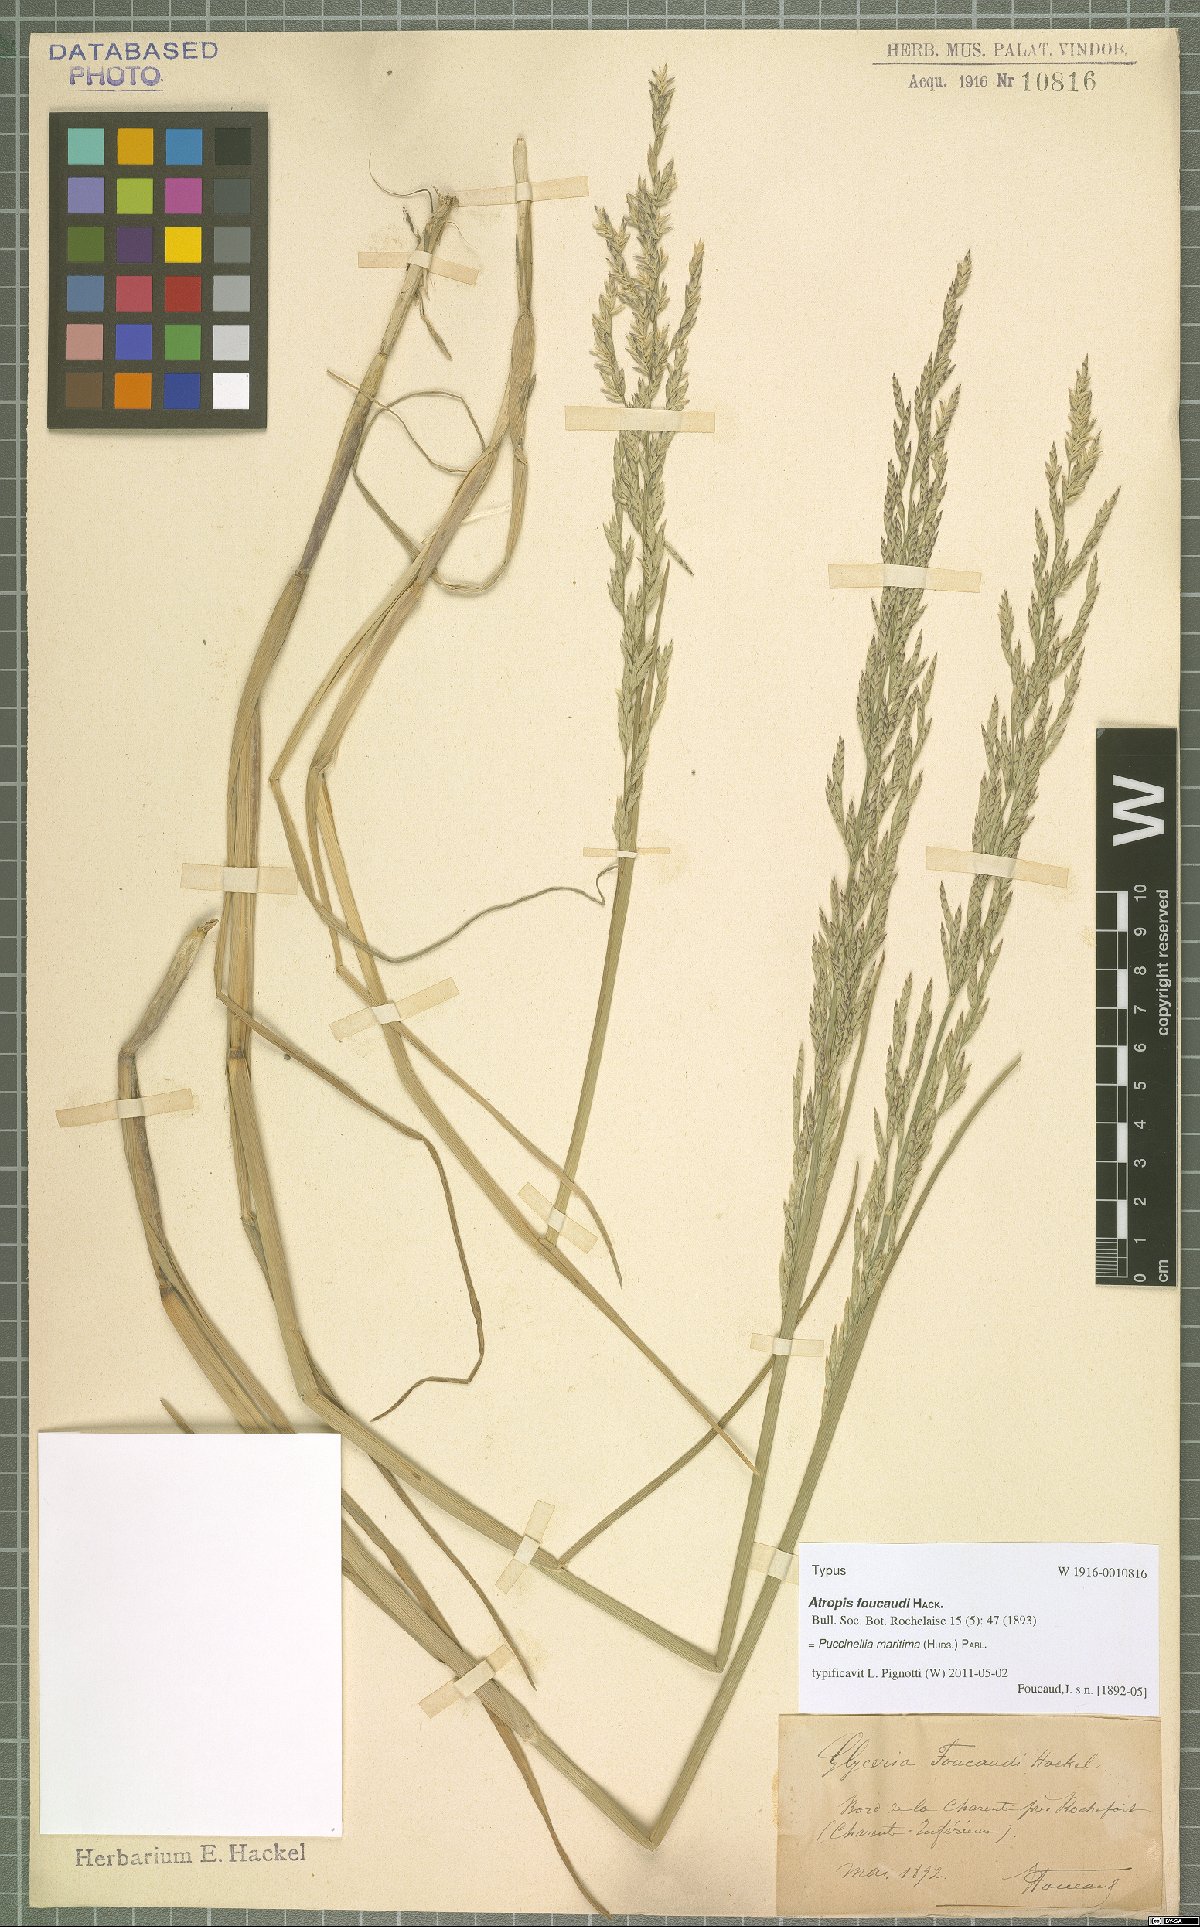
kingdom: Plantae
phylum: Tracheophyta
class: Liliopsida
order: Poales
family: Poaceae
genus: Puccinellia
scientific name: Puccinellia maritima
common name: Common saltmarsh grass
